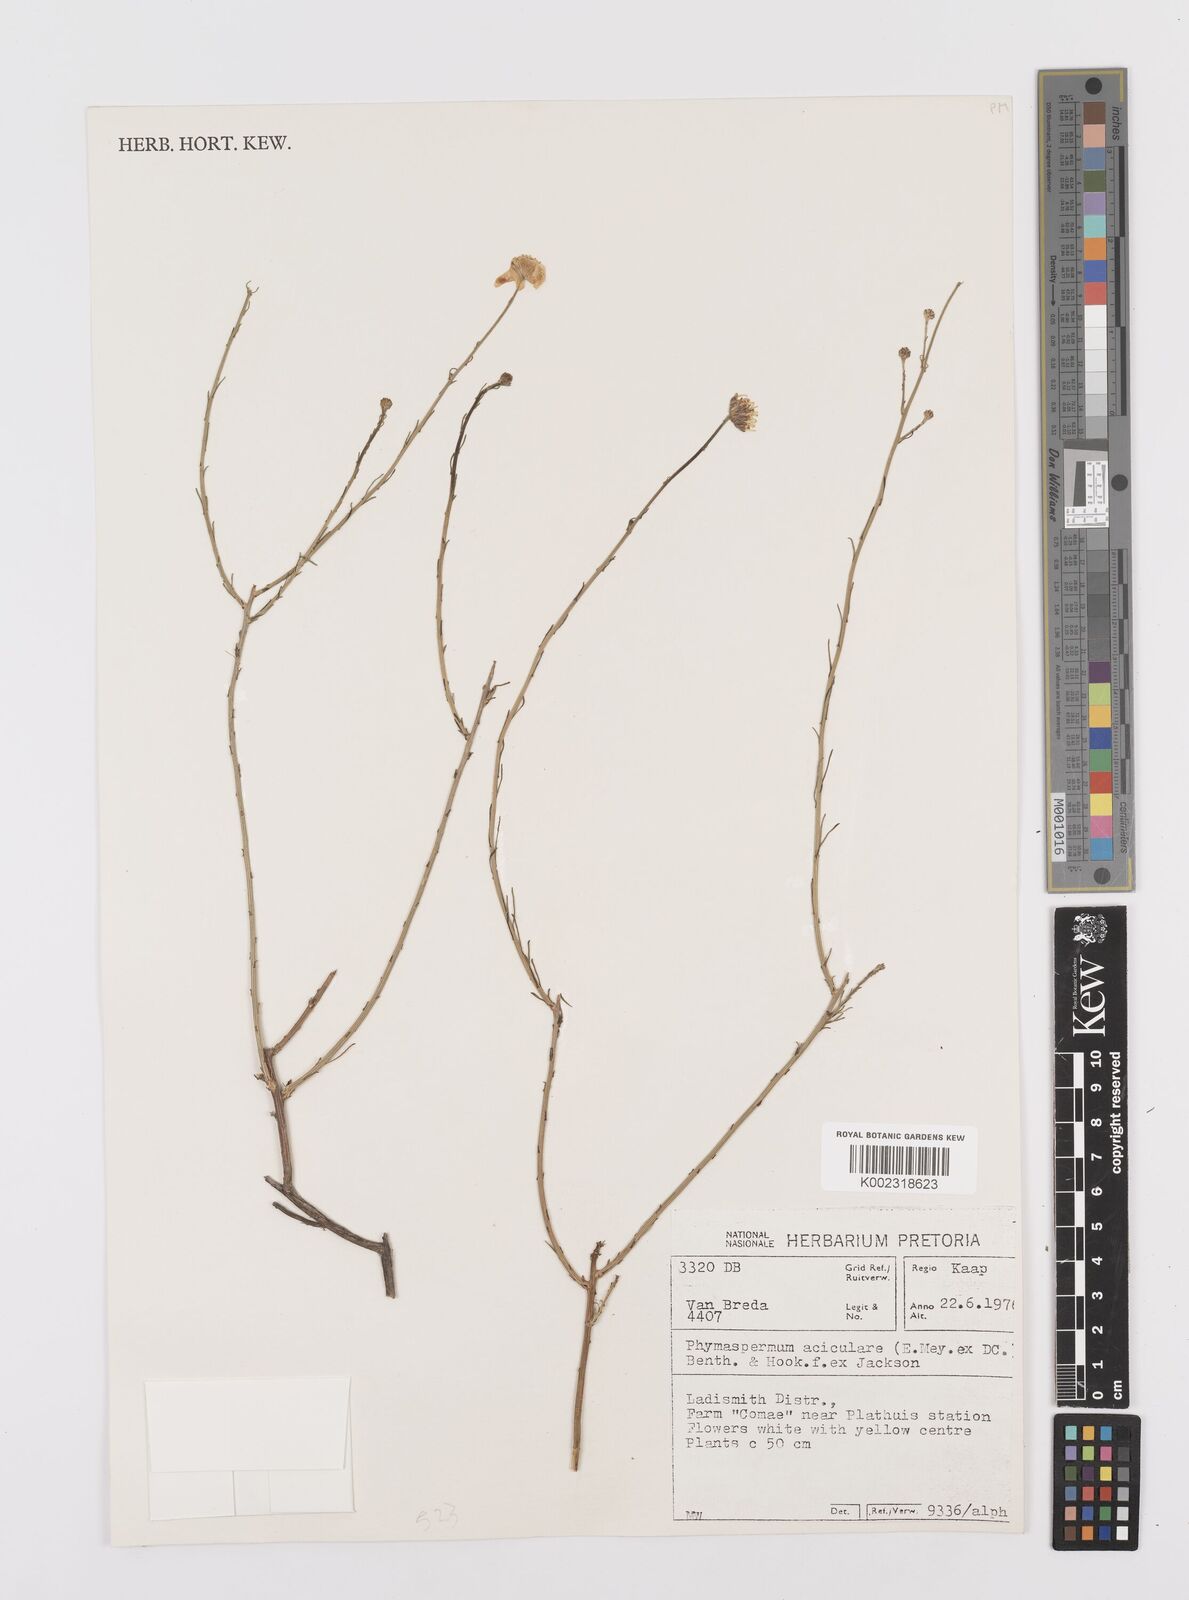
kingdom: Plantae
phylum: Tracheophyta
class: Magnoliopsida
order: Asterales
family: Asteraceae
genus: Phymaspermum
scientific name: Phymaspermum aciculare
